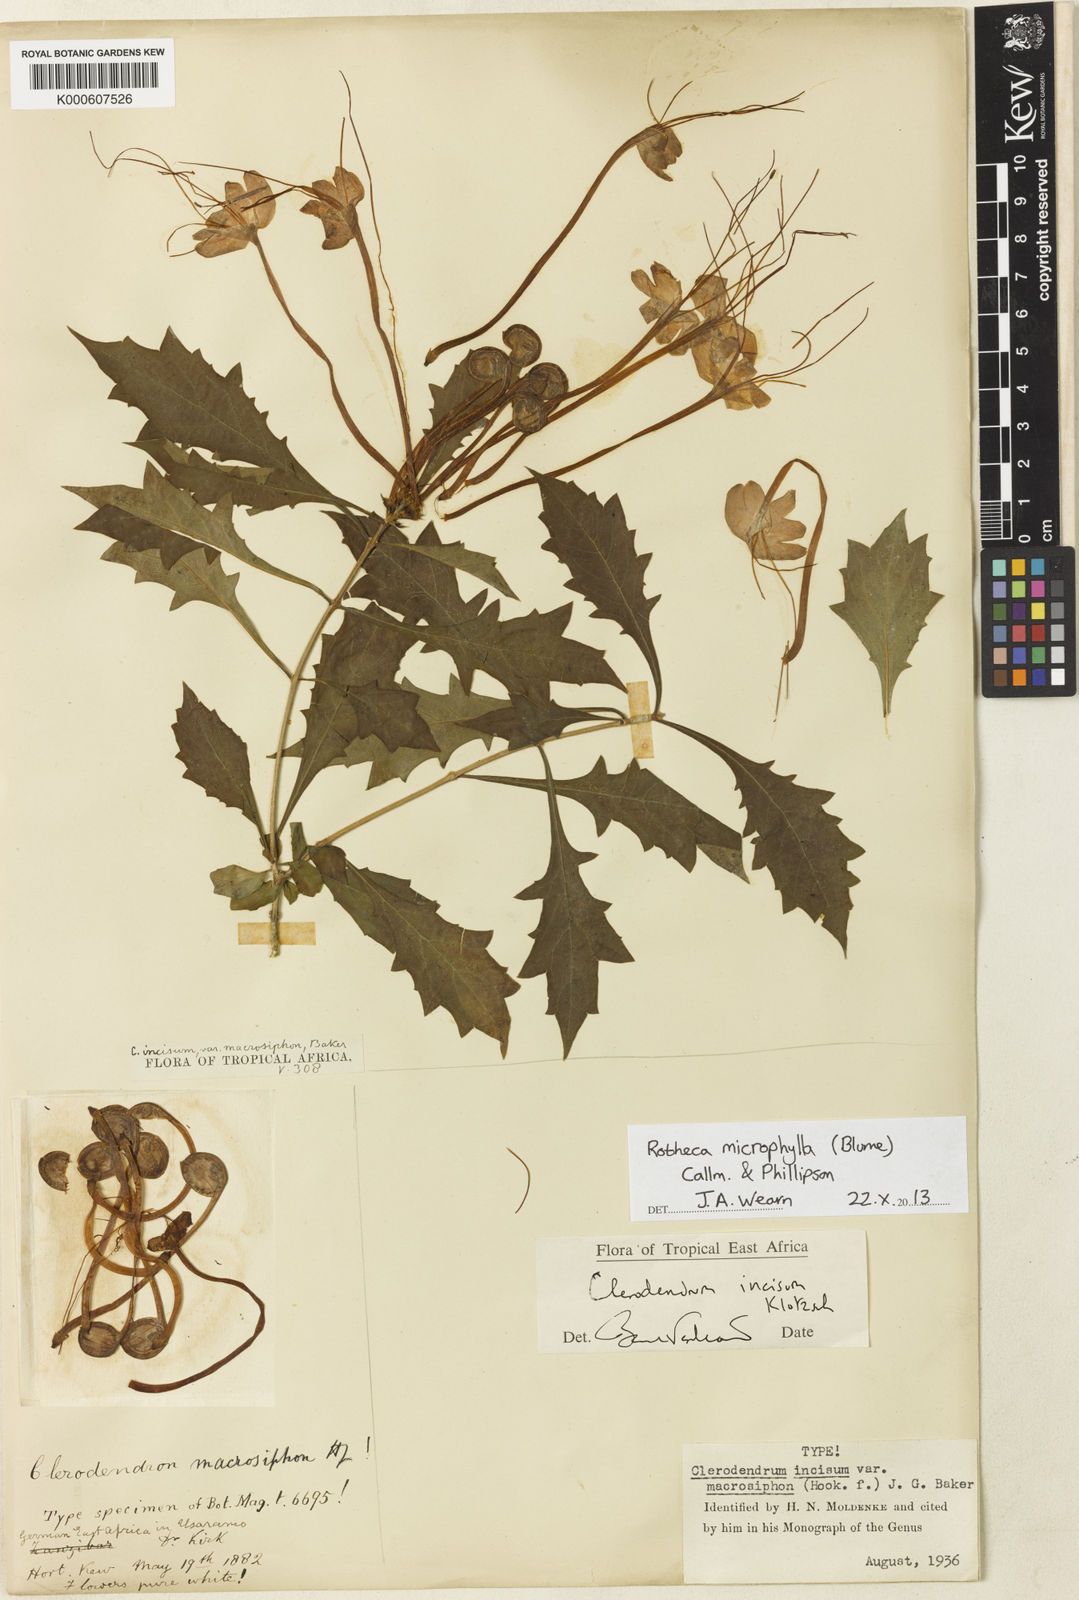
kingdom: Plantae
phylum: Tracheophyta
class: Magnoliopsida
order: Lamiales
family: Lamiaceae
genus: Rotheca
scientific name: Rotheca microphylla
